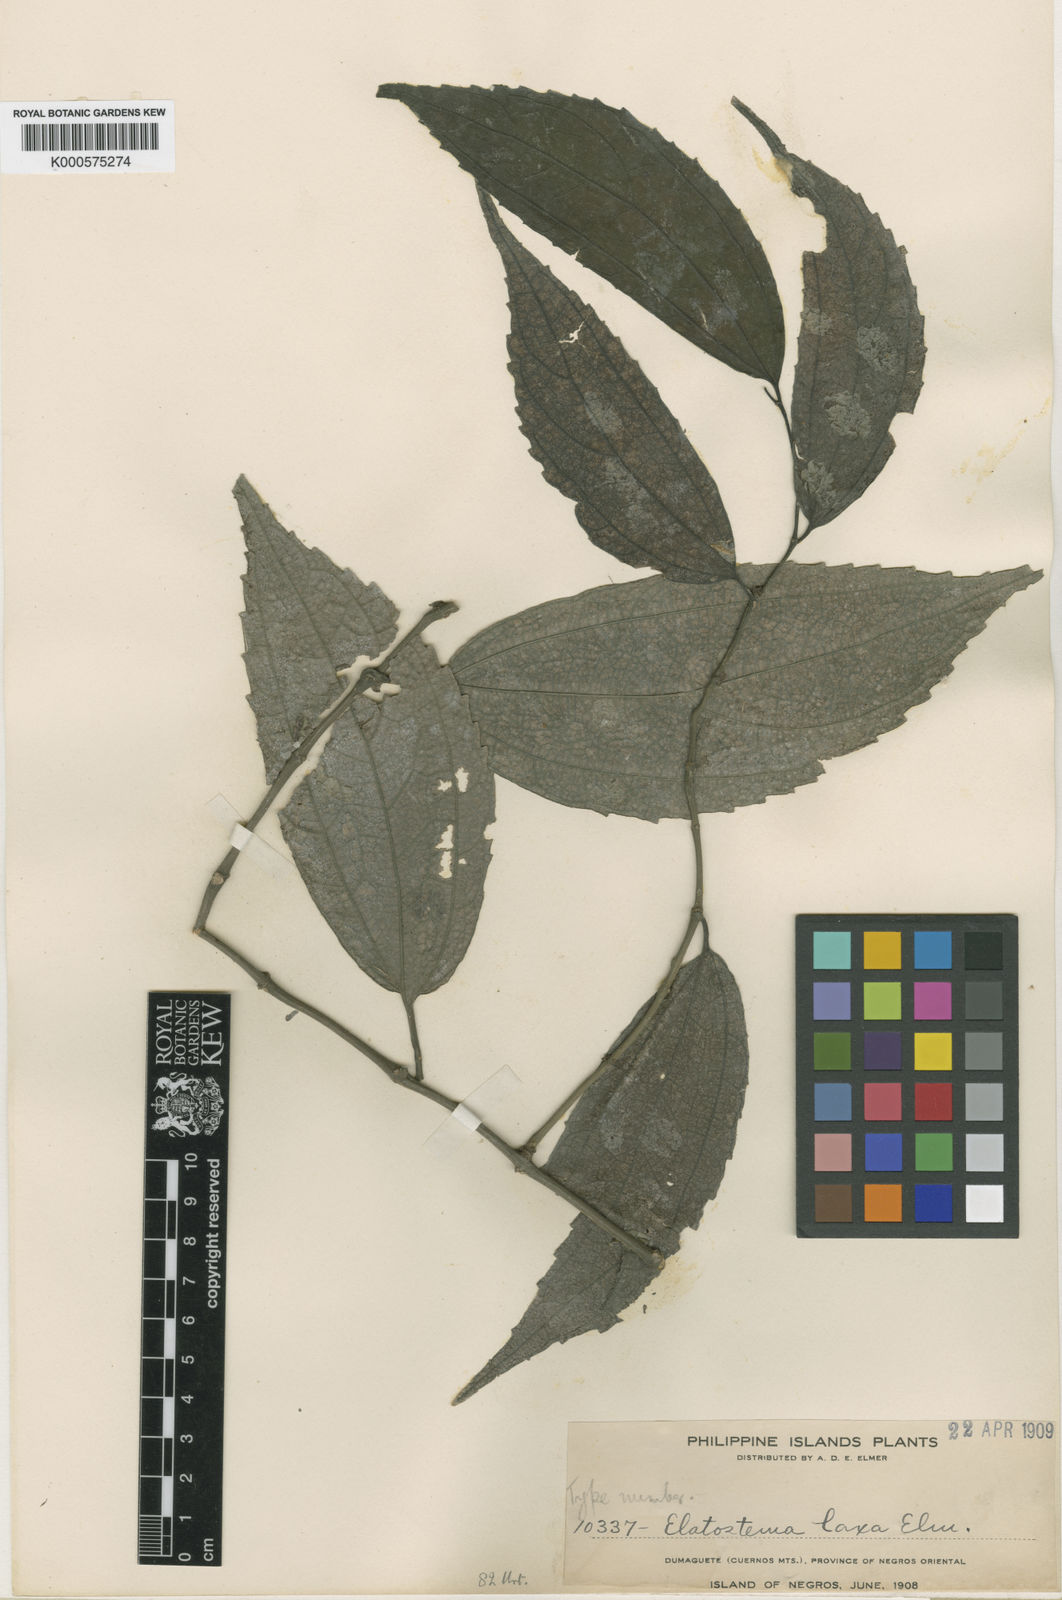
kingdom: Plantae
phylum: Tracheophyta
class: Magnoliopsida
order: Rosales
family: Urticaceae
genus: Elatostematoides
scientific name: Elatostematoides rigidum
